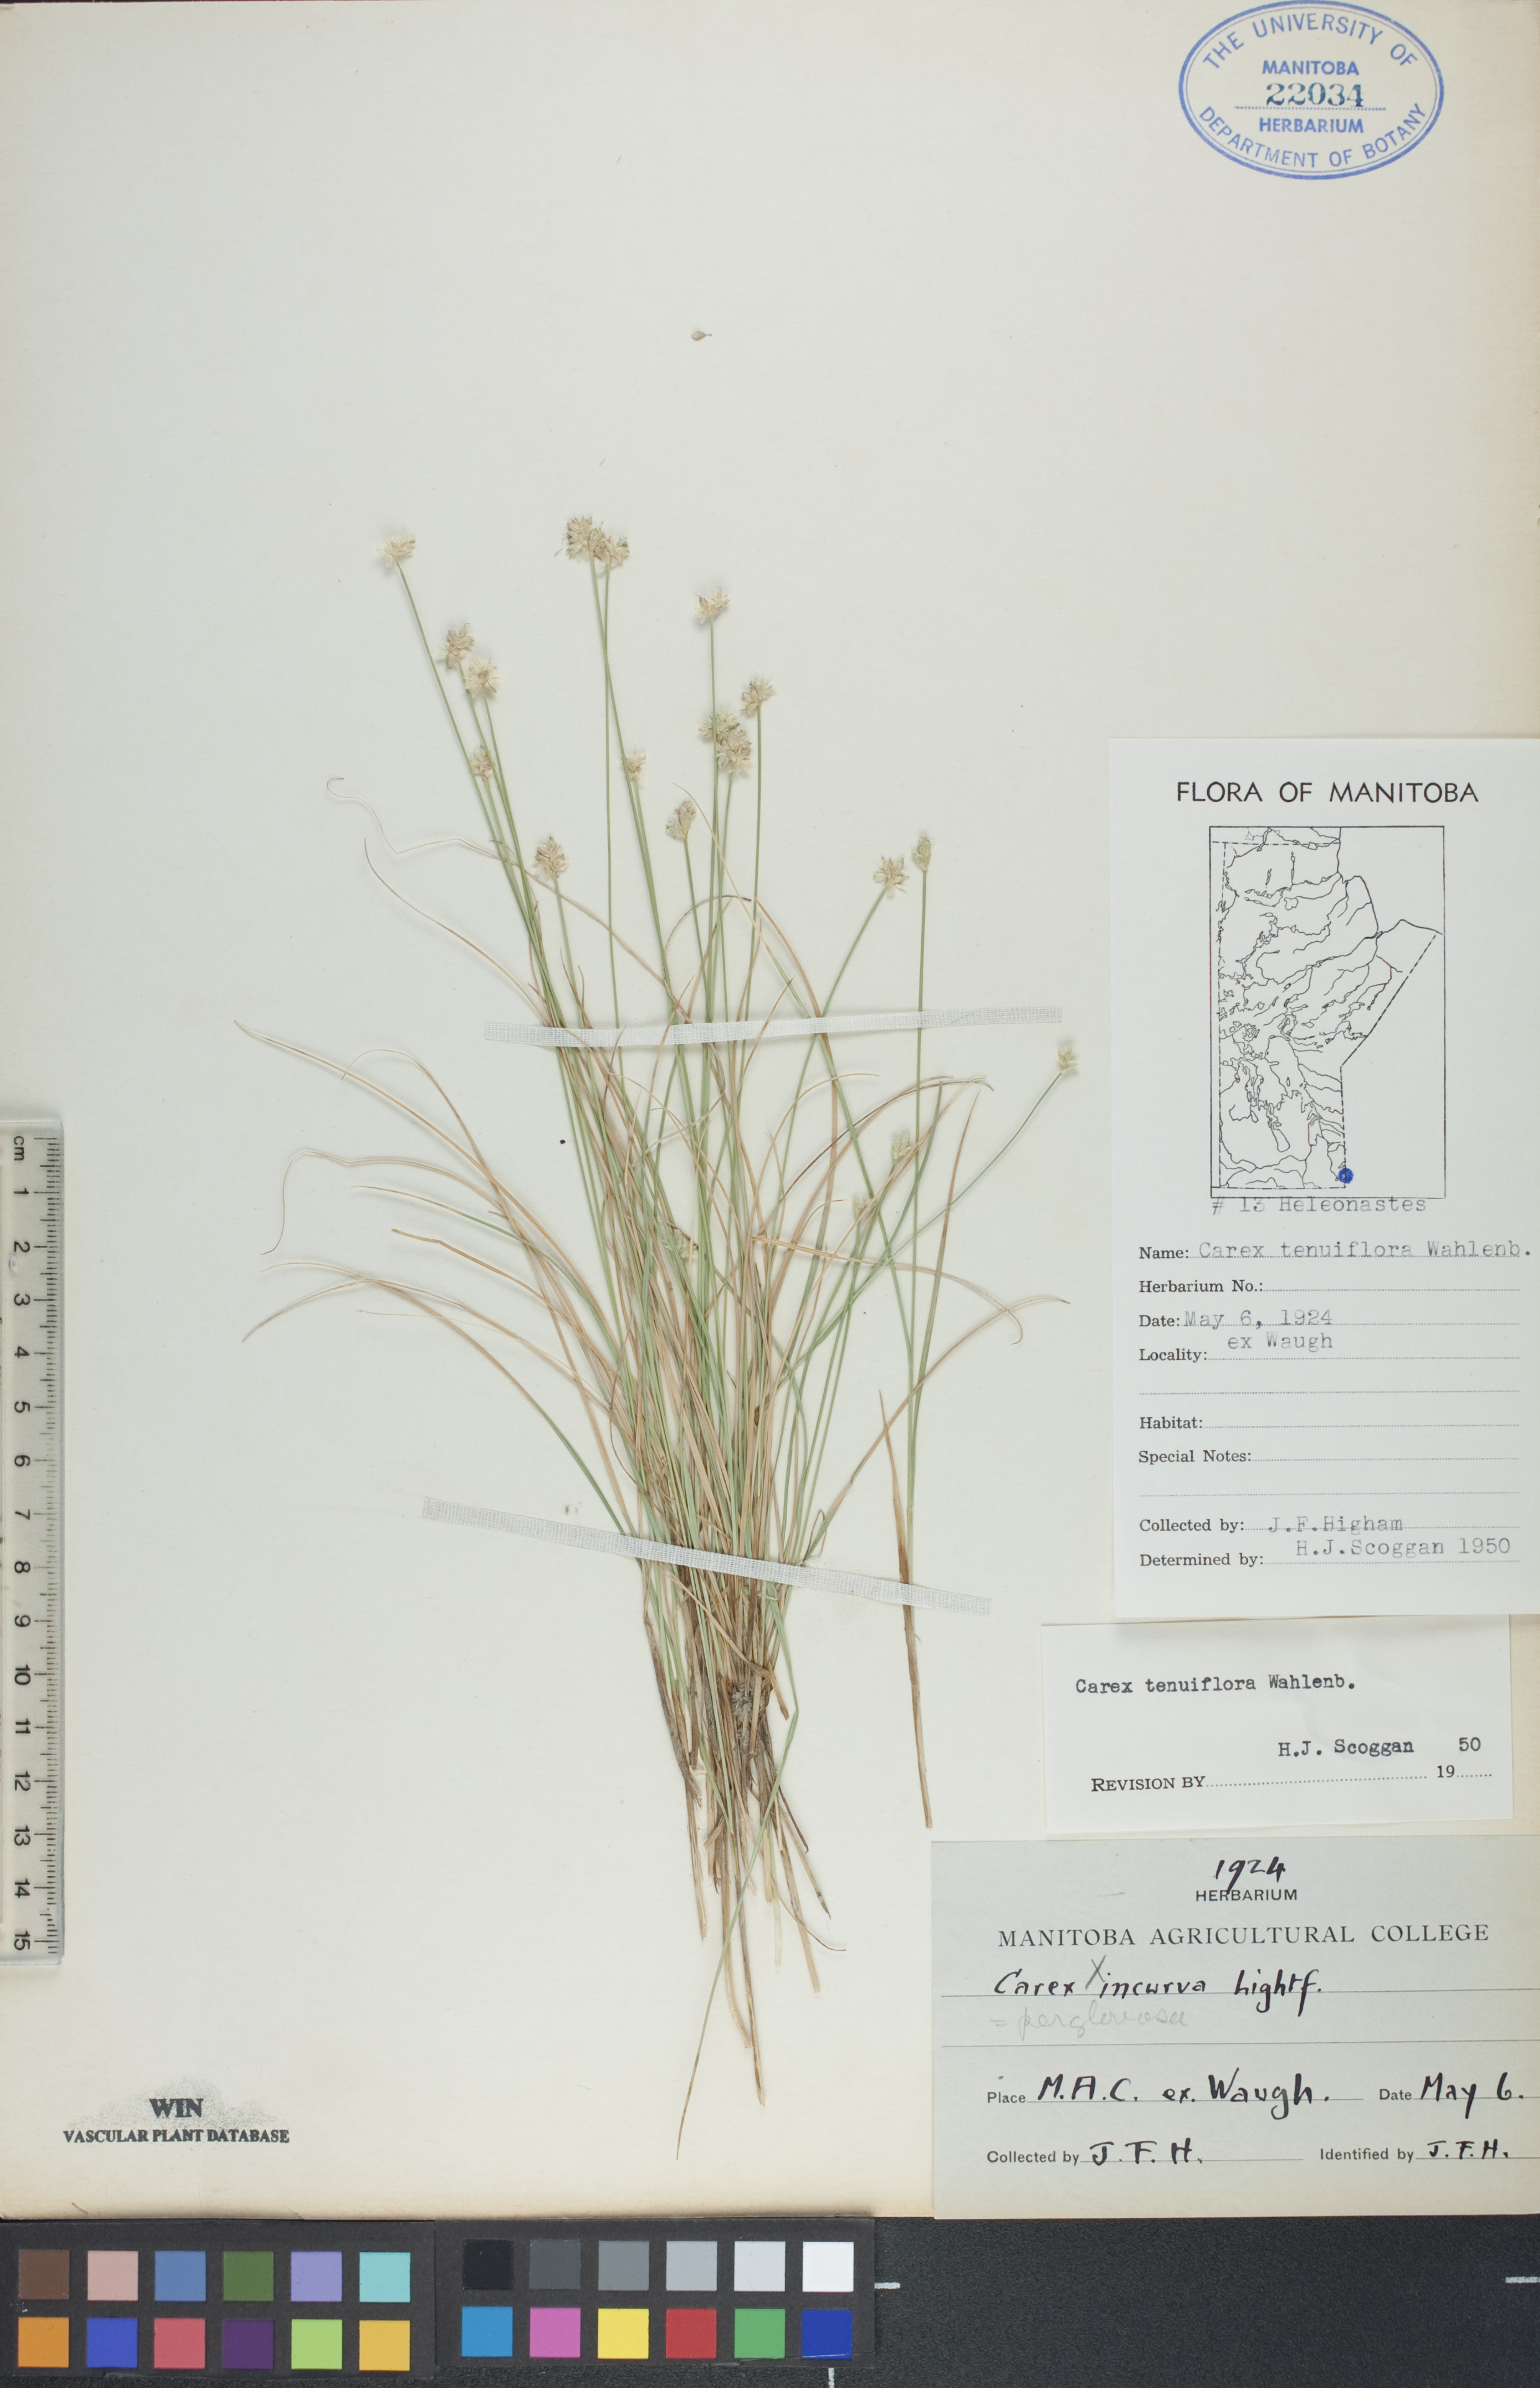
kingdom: Plantae
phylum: Tracheophyta
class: Liliopsida
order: Poales
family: Cyperaceae
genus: Carex
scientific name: Carex tenuiflora
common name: Sparse-flowered sedge
